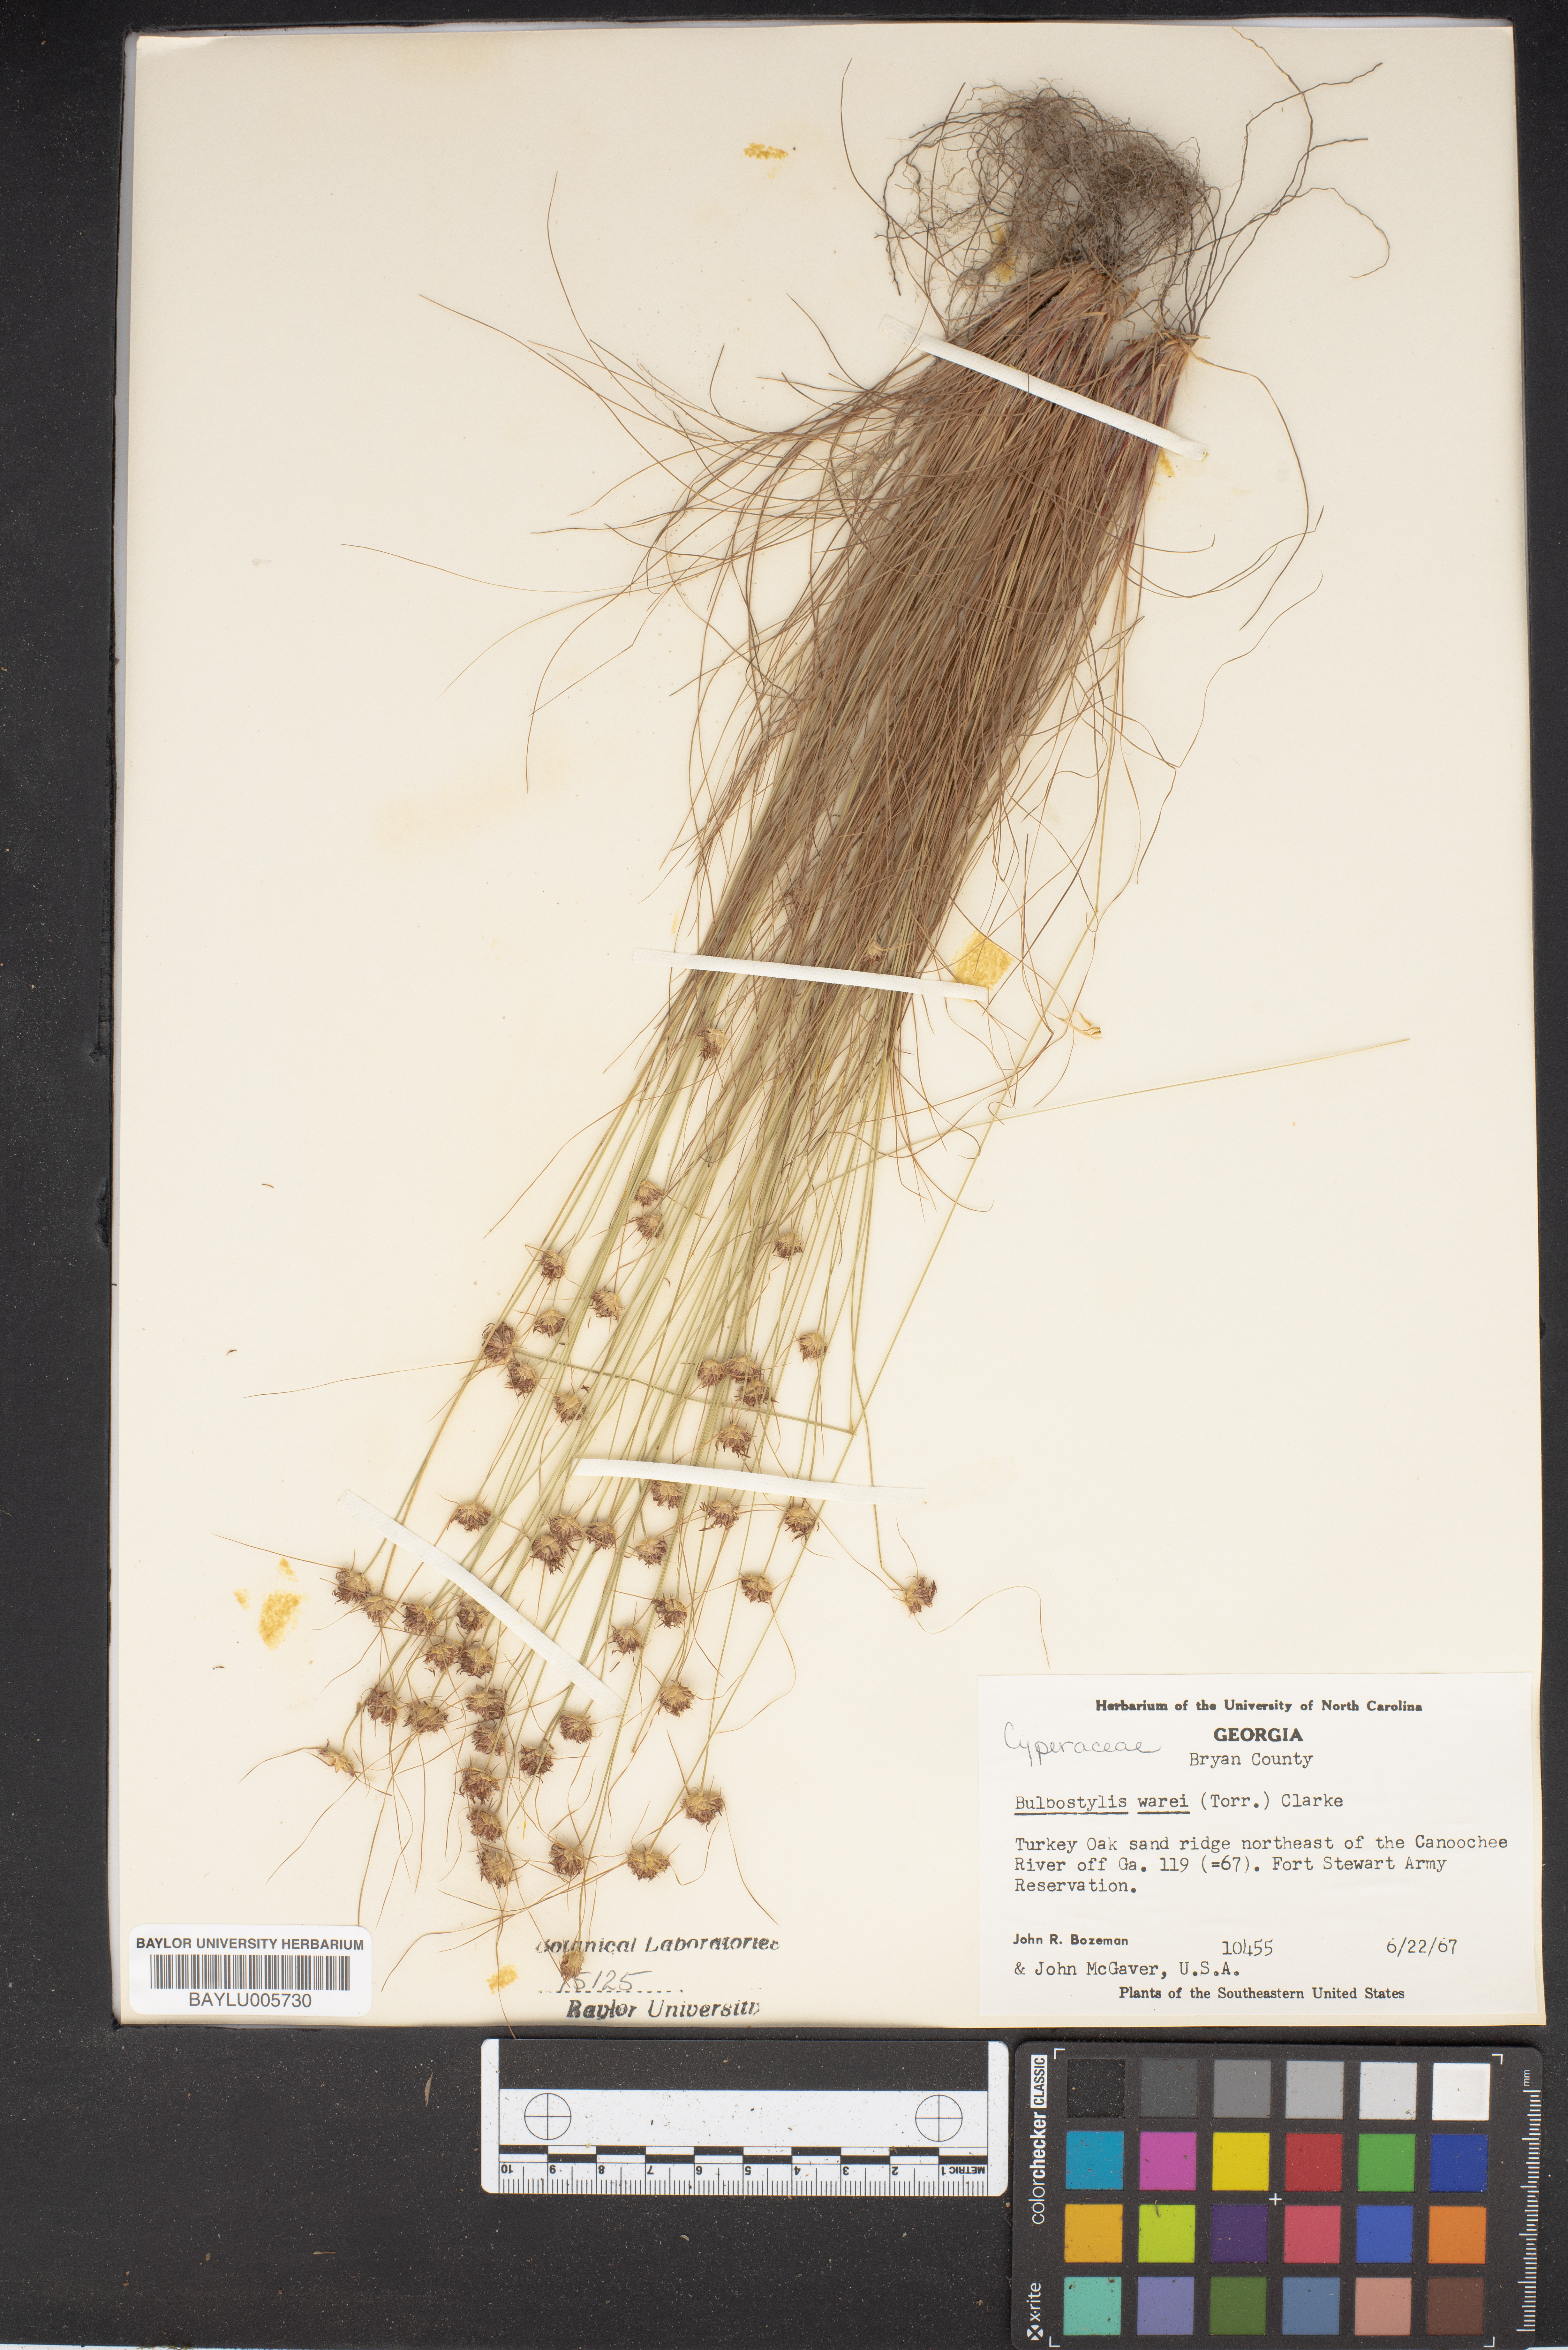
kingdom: Plantae
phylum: Tracheophyta
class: Liliopsida
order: Poales
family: Cyperaceae
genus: Bulbostylis
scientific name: Bulbostylis warei
